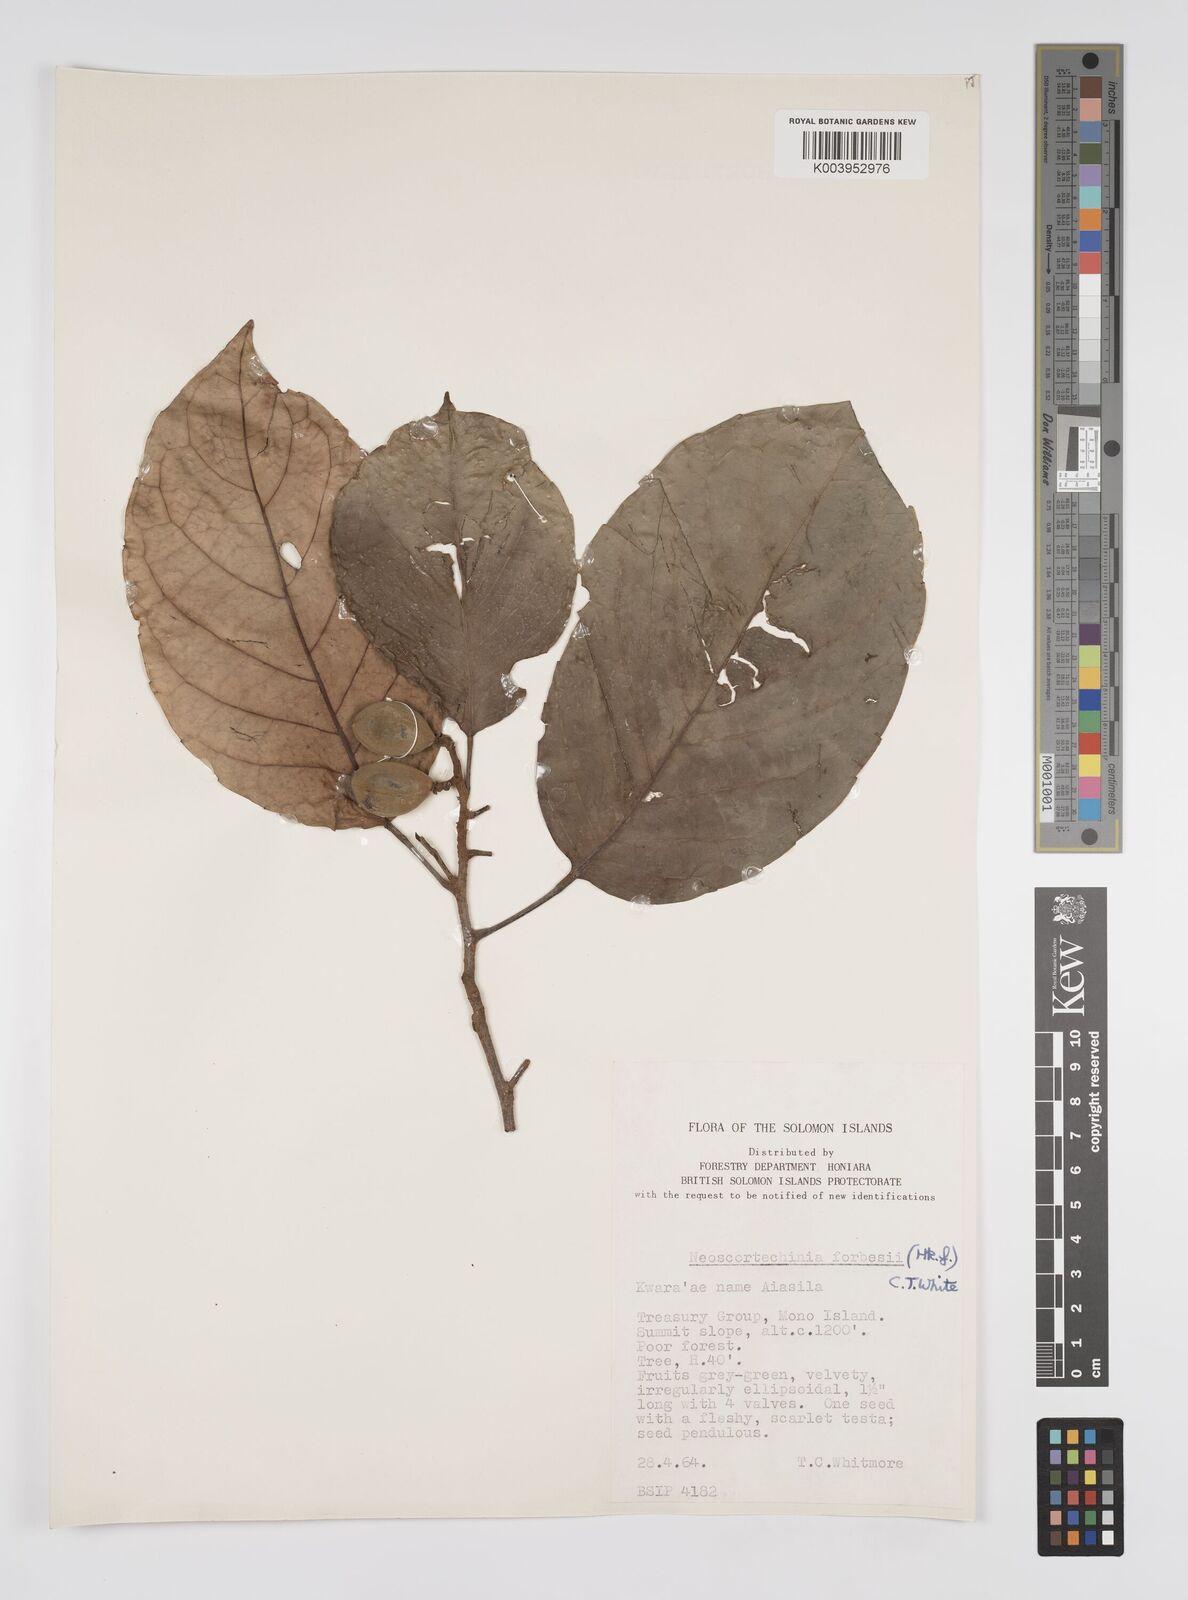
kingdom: Plantae
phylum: Tracheophyta
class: Magnoliopsida
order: Malpighiales
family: Euphorbiaceae
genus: Neoscortechinia
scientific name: Neoscortechinia forbesii
